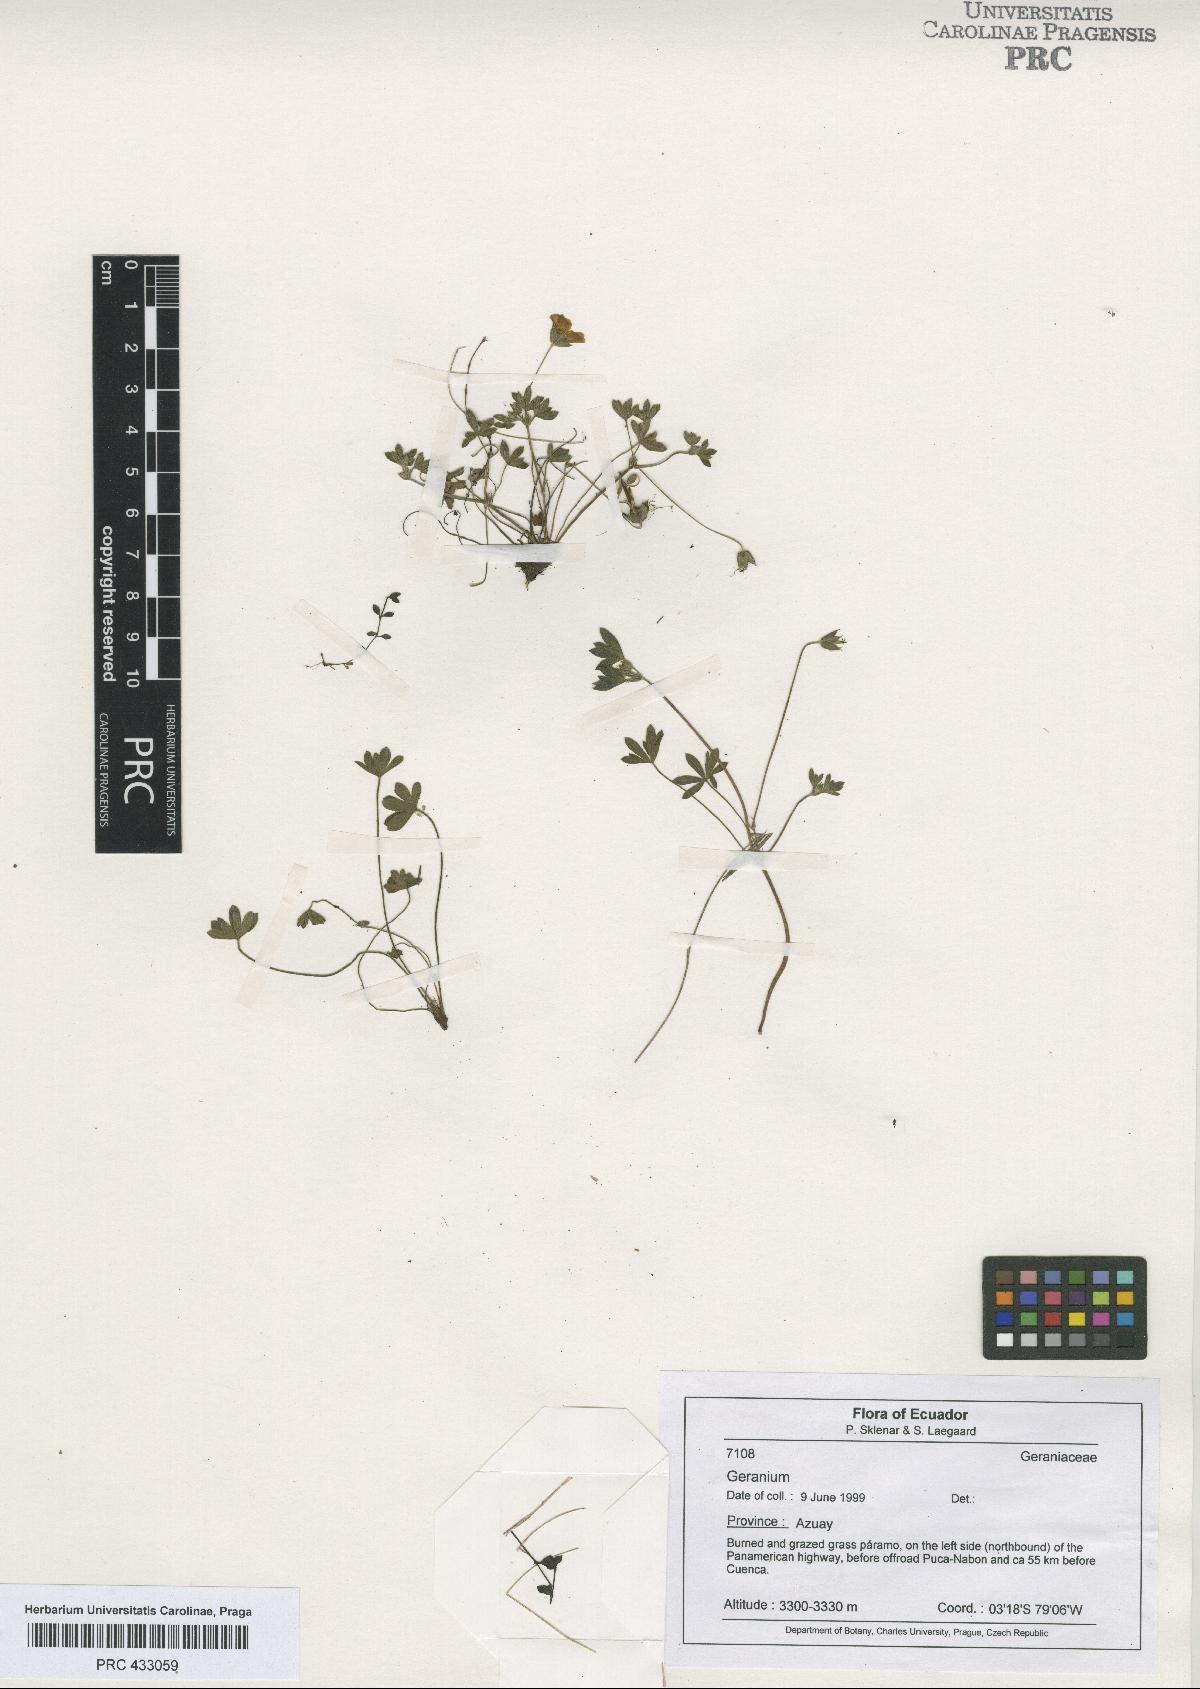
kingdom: Plantae
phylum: Tracheophyta
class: Magnoliopsida
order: Geraniales
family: Geraniaceae
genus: Geranium
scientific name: Geranium ayavacense
